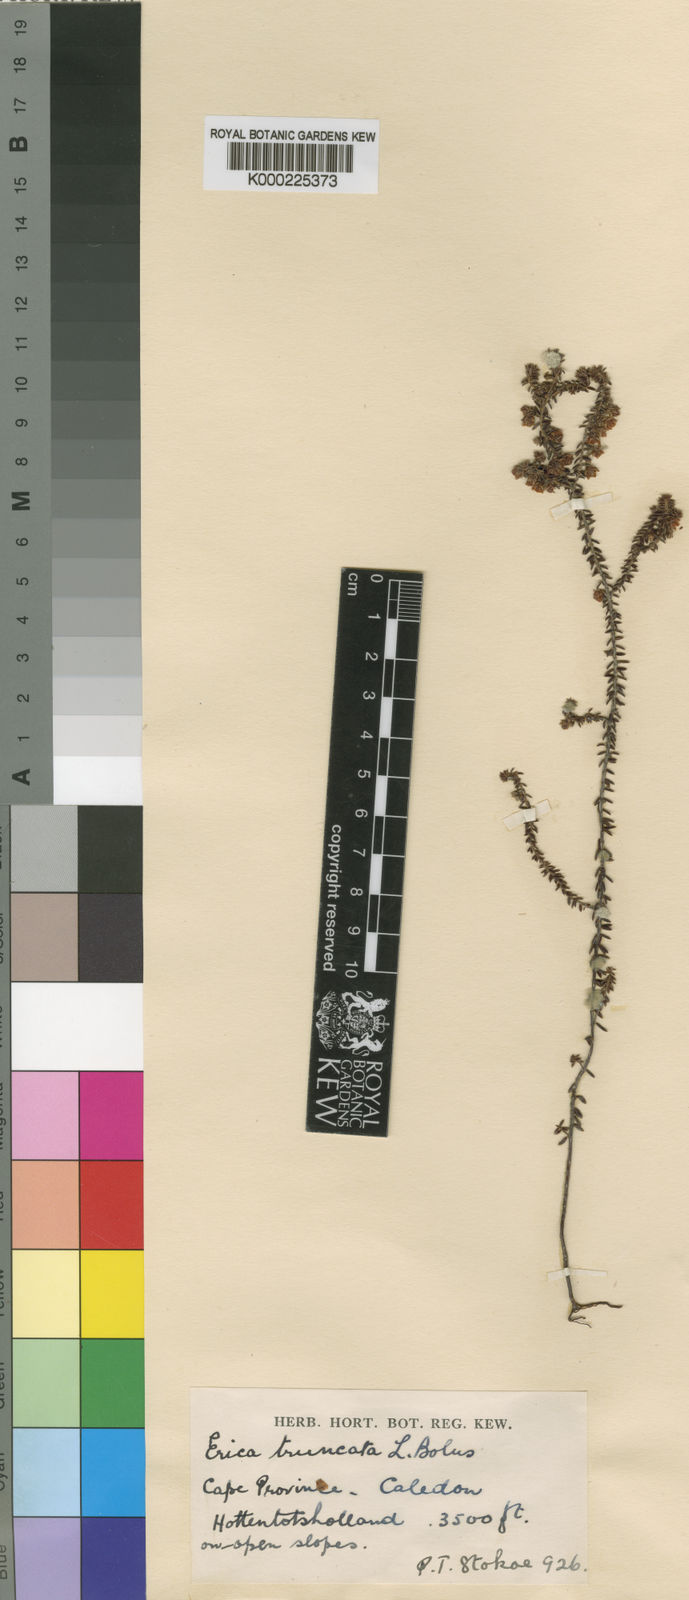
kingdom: Plantae
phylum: Tracheophyta
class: Magnoliopsida
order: Ericales
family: Ericaceae
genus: Erica
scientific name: Erica truncata
